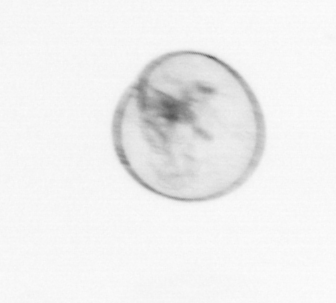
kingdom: Chromista
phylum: Myzozoa
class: Dinophyceae
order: Noctilucales
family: Noctilucaceae
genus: Noctiluca
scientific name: Noctiluca scintillans
